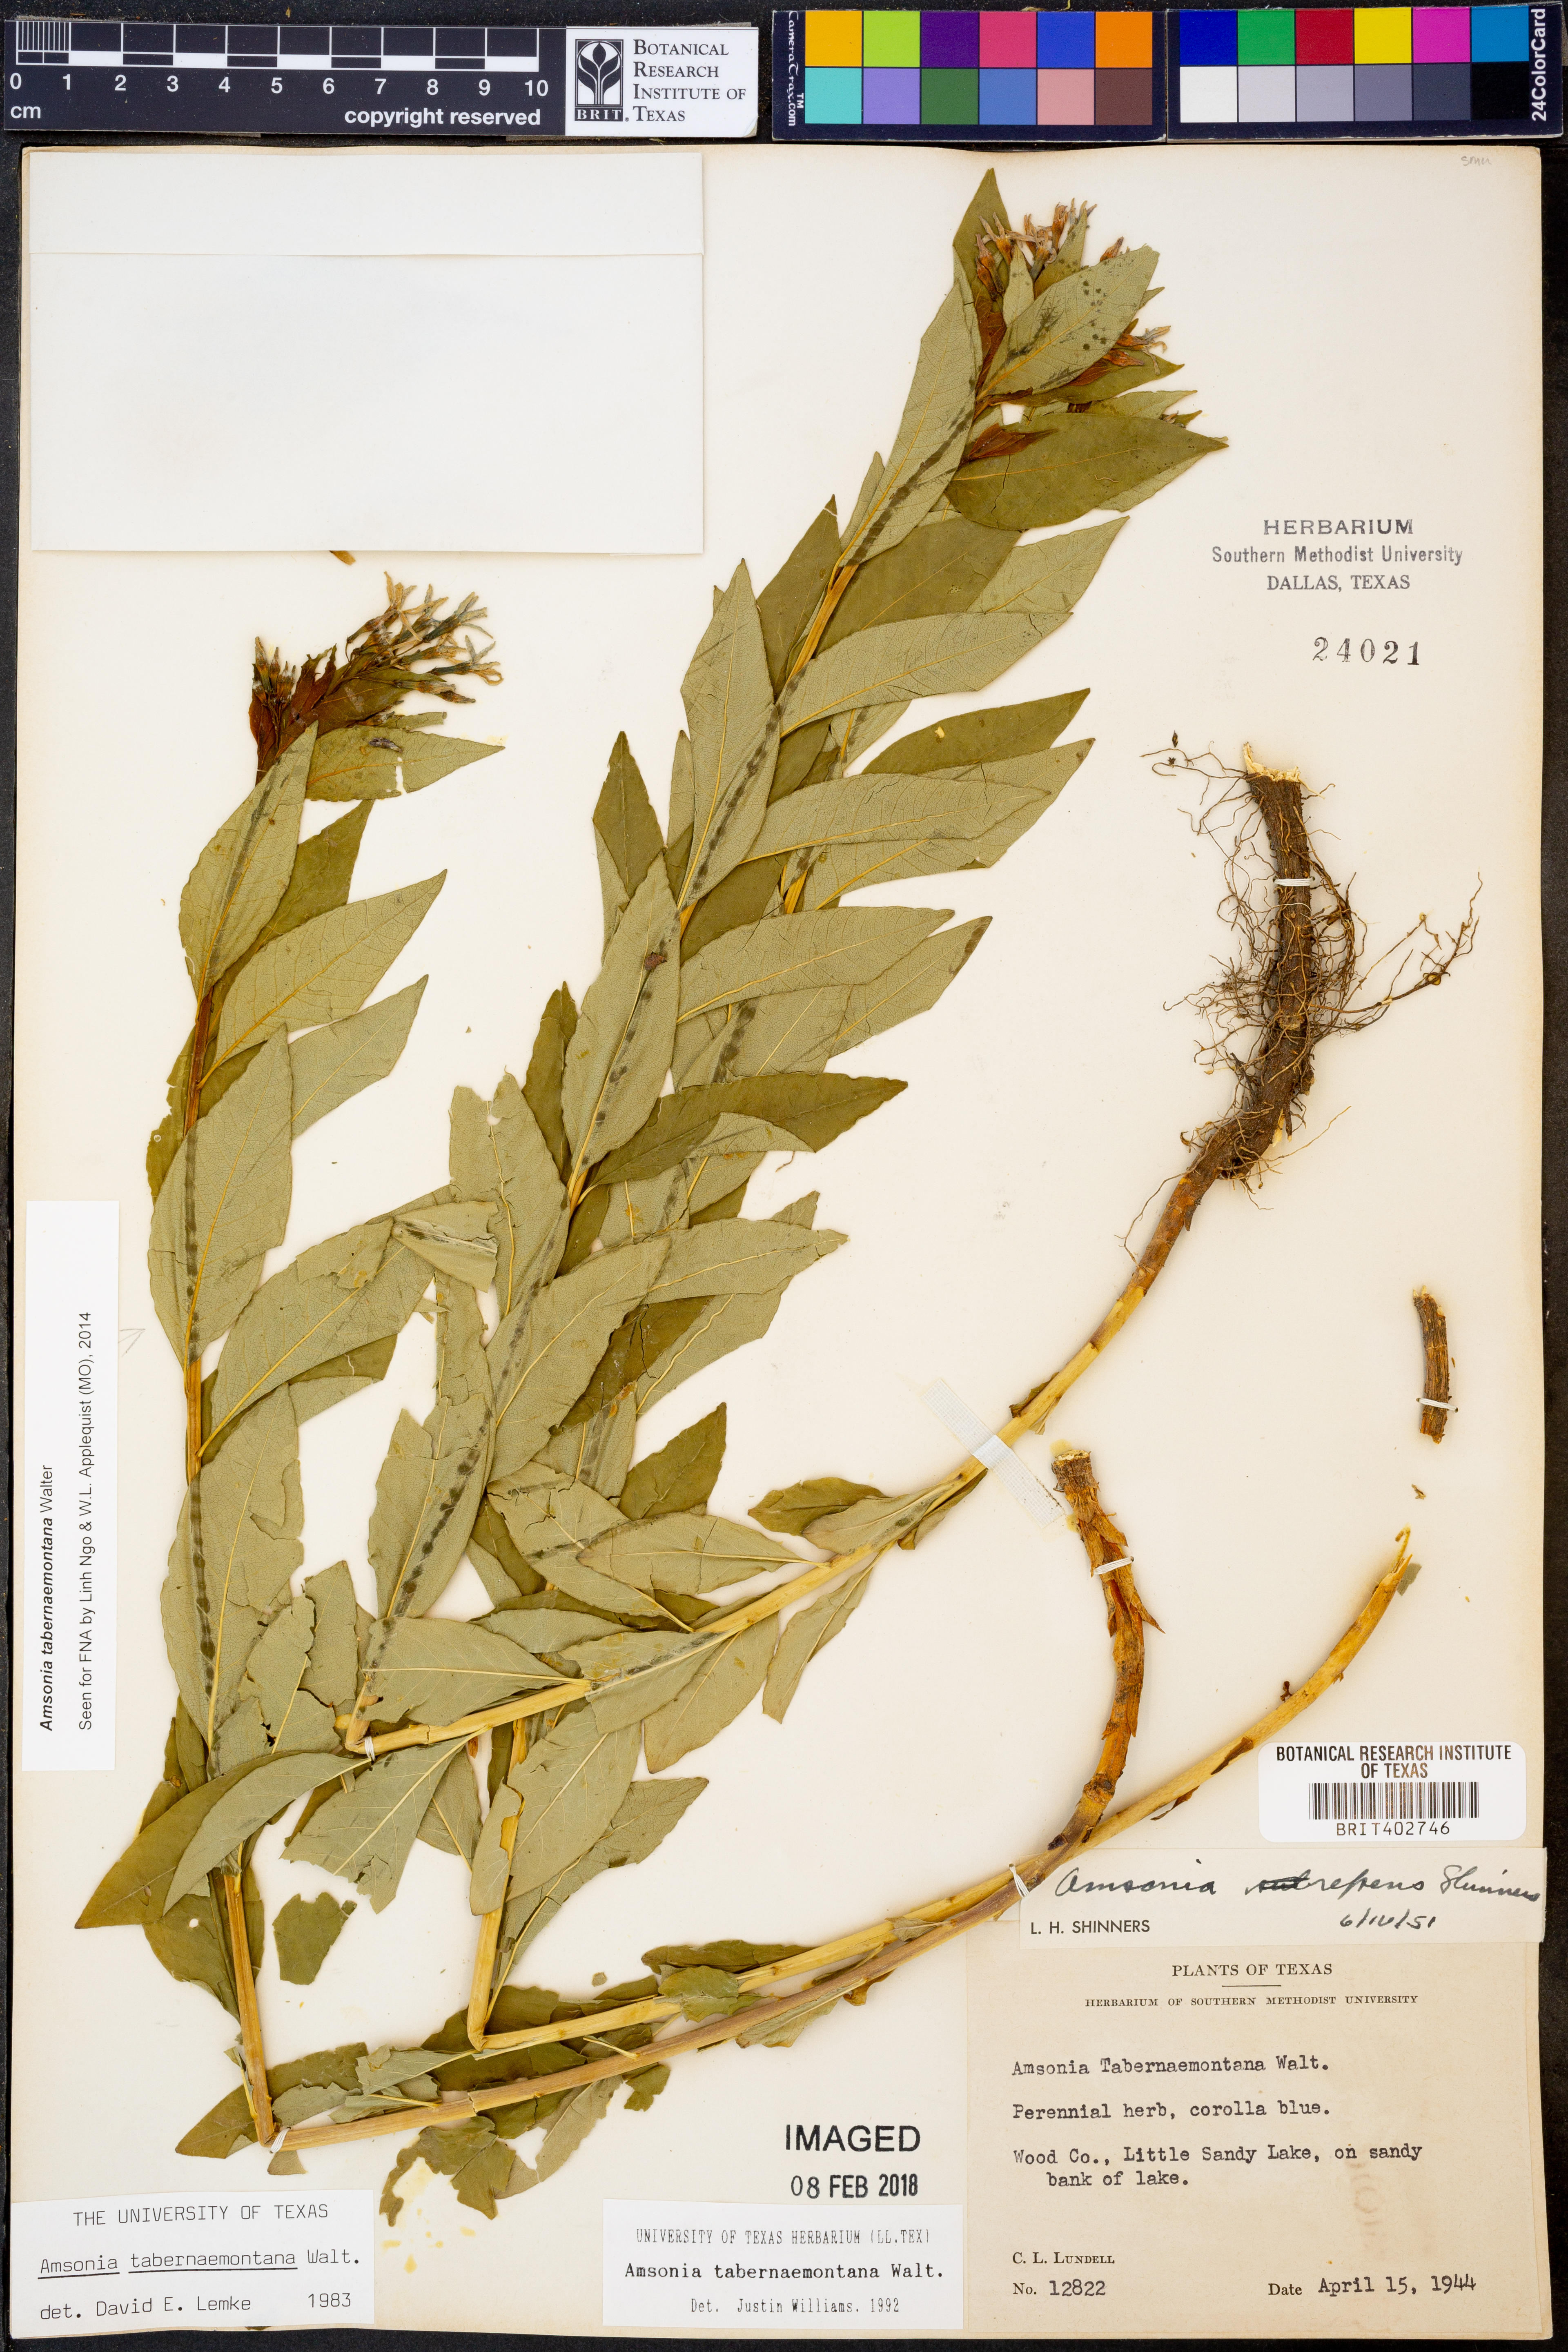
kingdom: Plantae
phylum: Tracheophyta
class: Magnoliopsida
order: Gentianales
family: Apocynaceae
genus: Amsonia
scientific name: Amsonia tabernaemontana
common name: Texas-star
